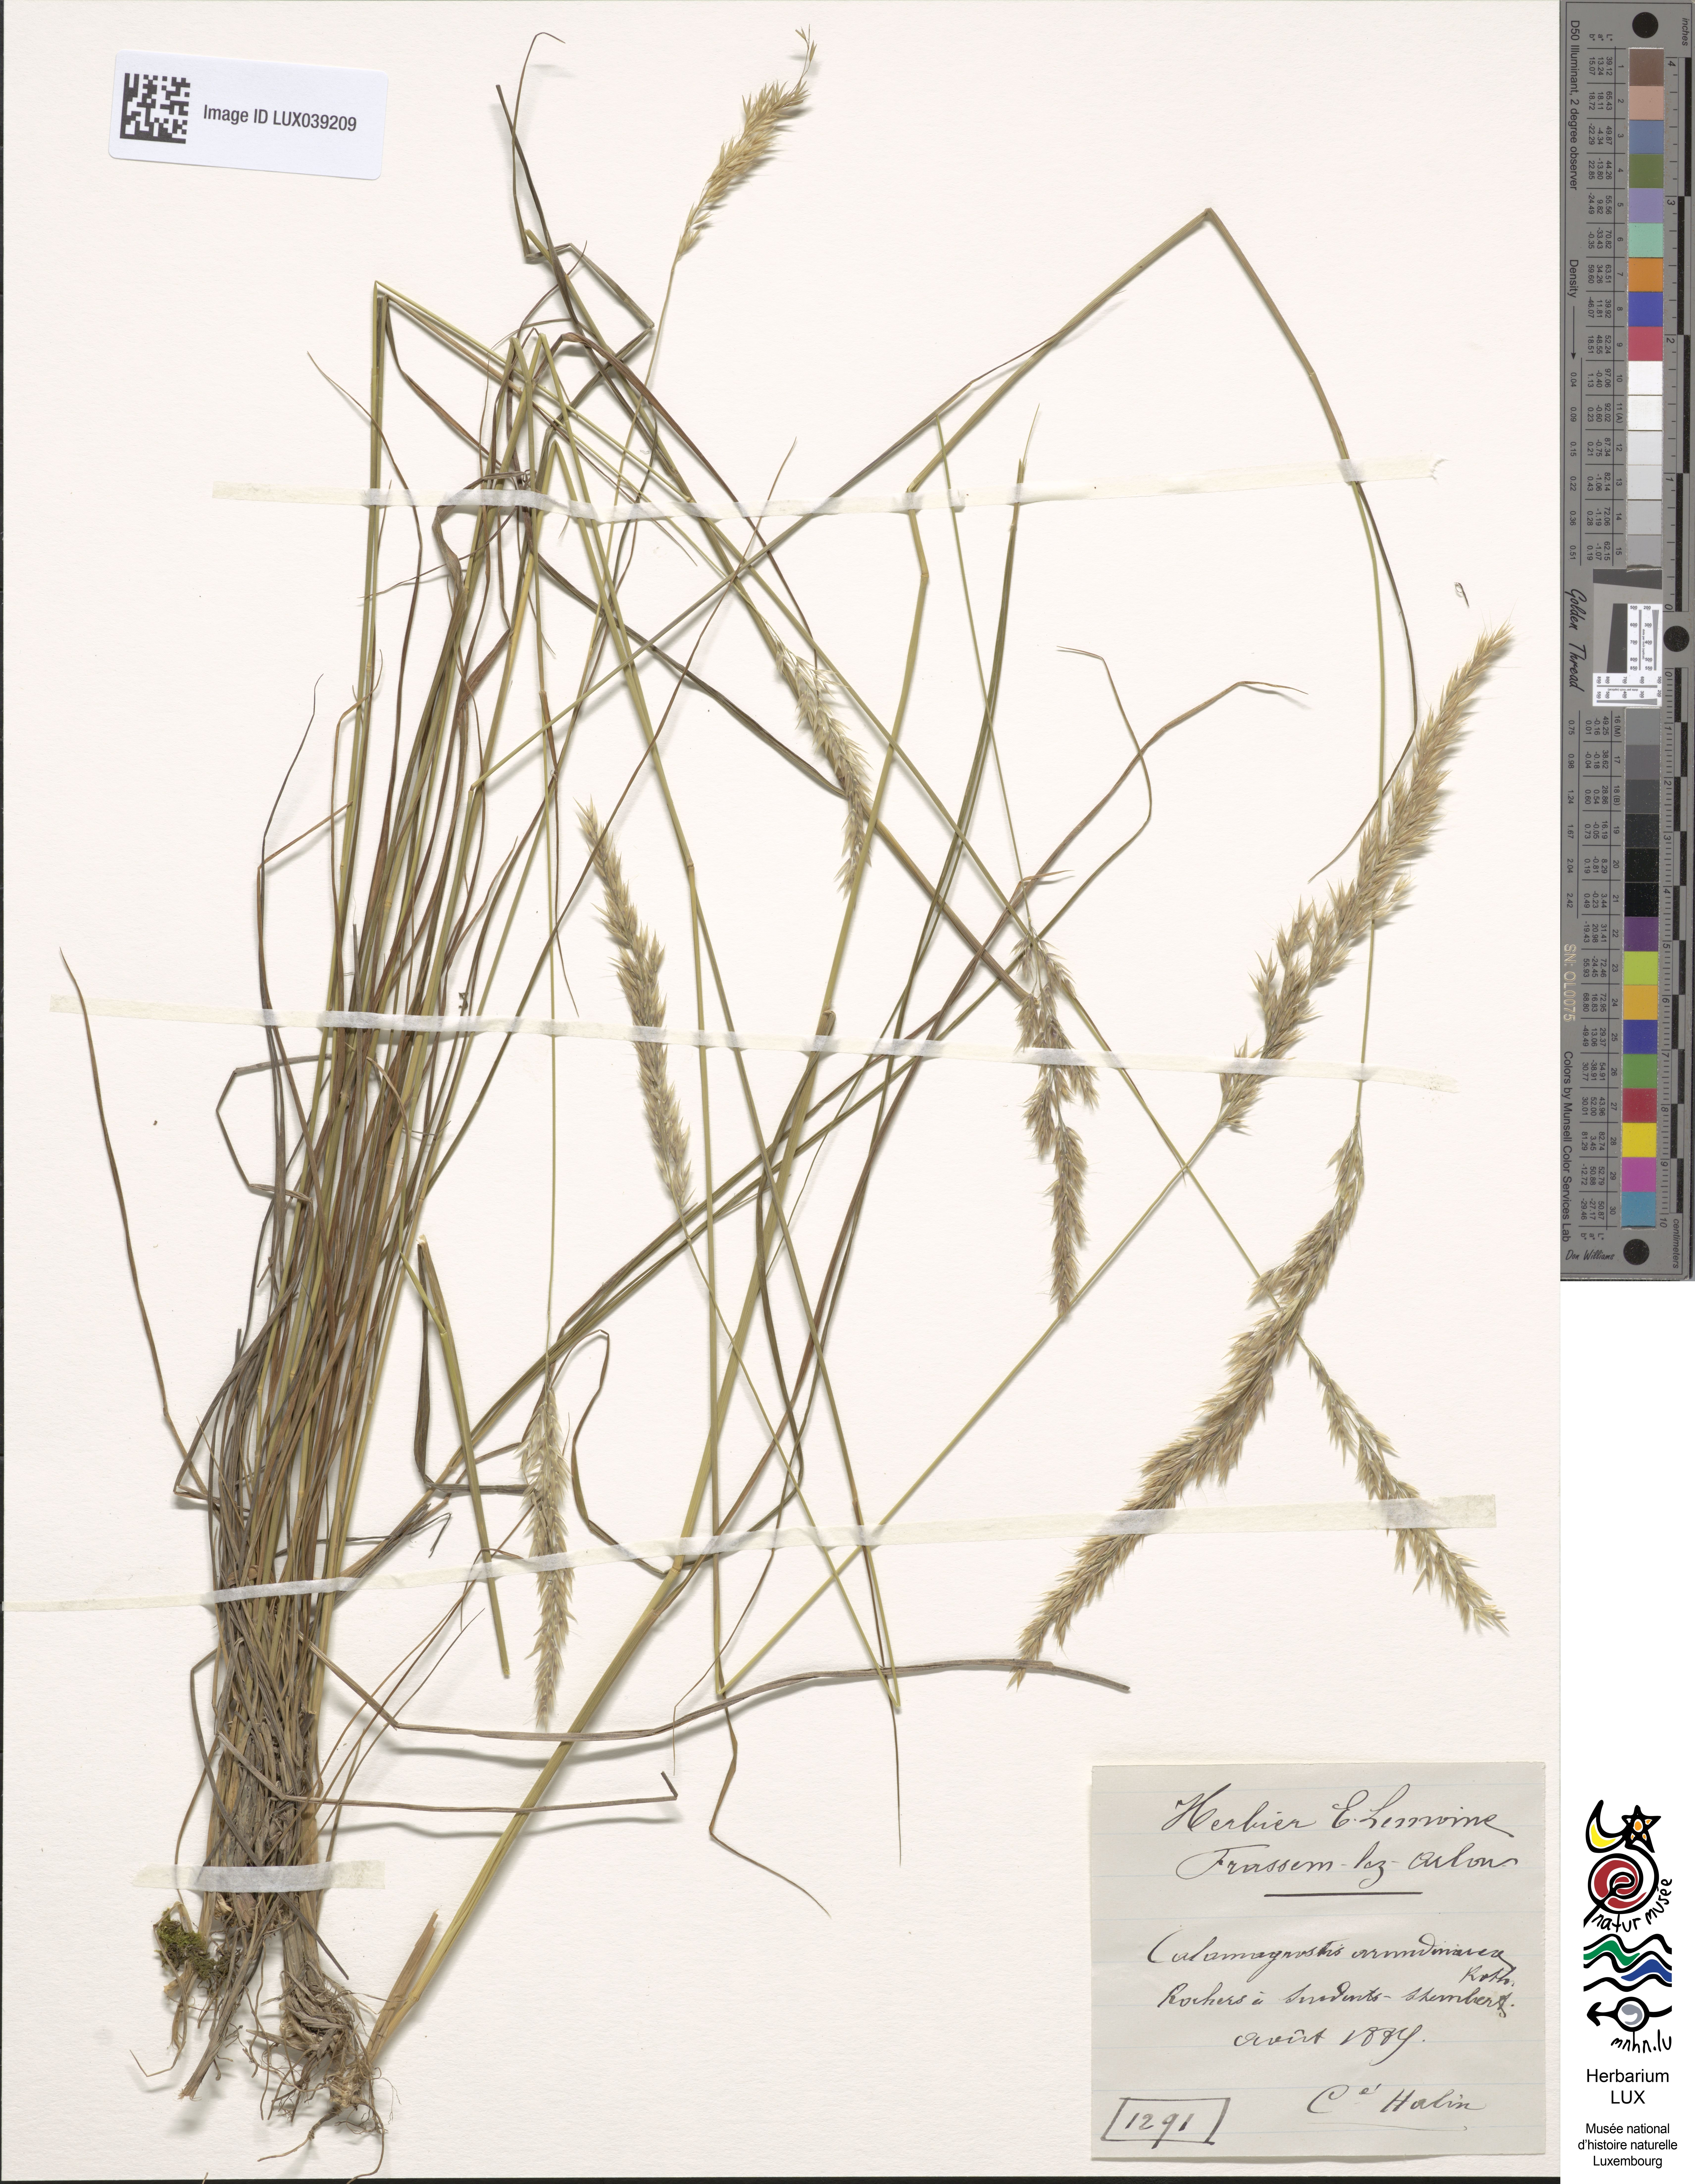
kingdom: Plantae
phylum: Tracheophyta
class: Liliopsida
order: Poales
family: Poaceae
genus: Calamagrostis
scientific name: Calamagrostis arundinacea
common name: Metskastik
